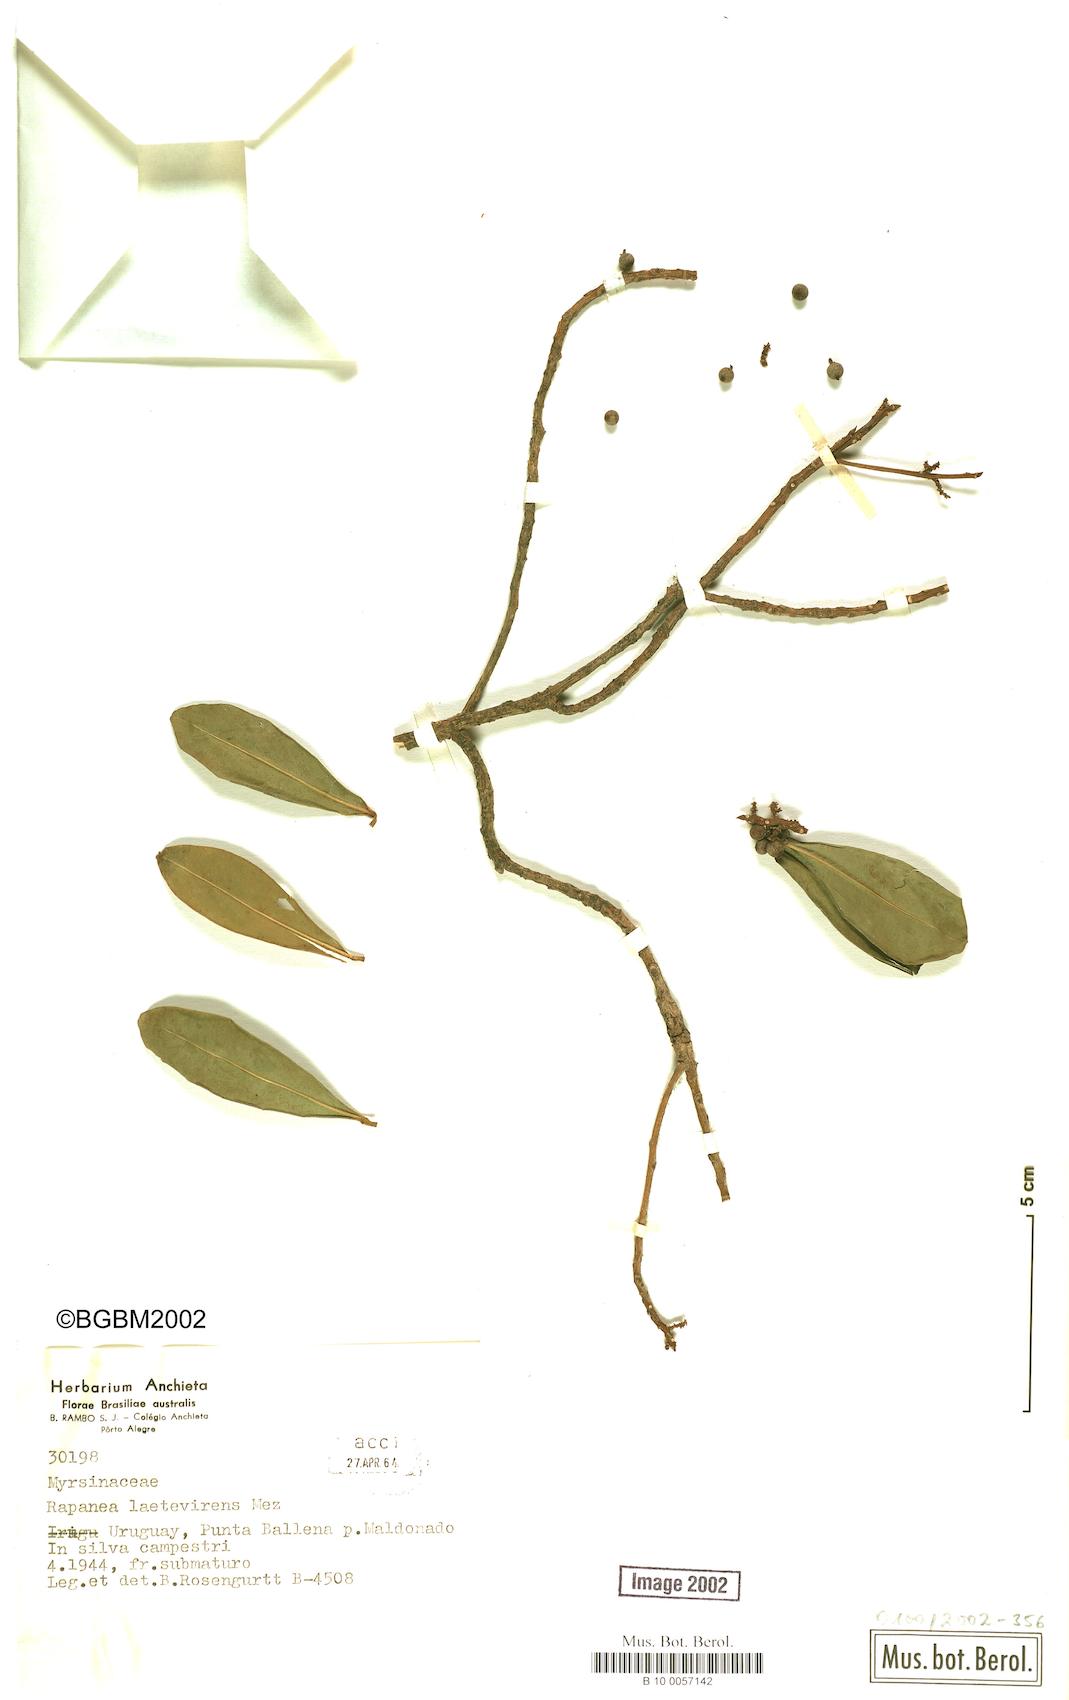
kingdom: Plantae
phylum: Tracheophyta
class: Magnoliopsida
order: Ericales
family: Primulaceae
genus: Myrsine
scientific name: Myrsine laetevirens
